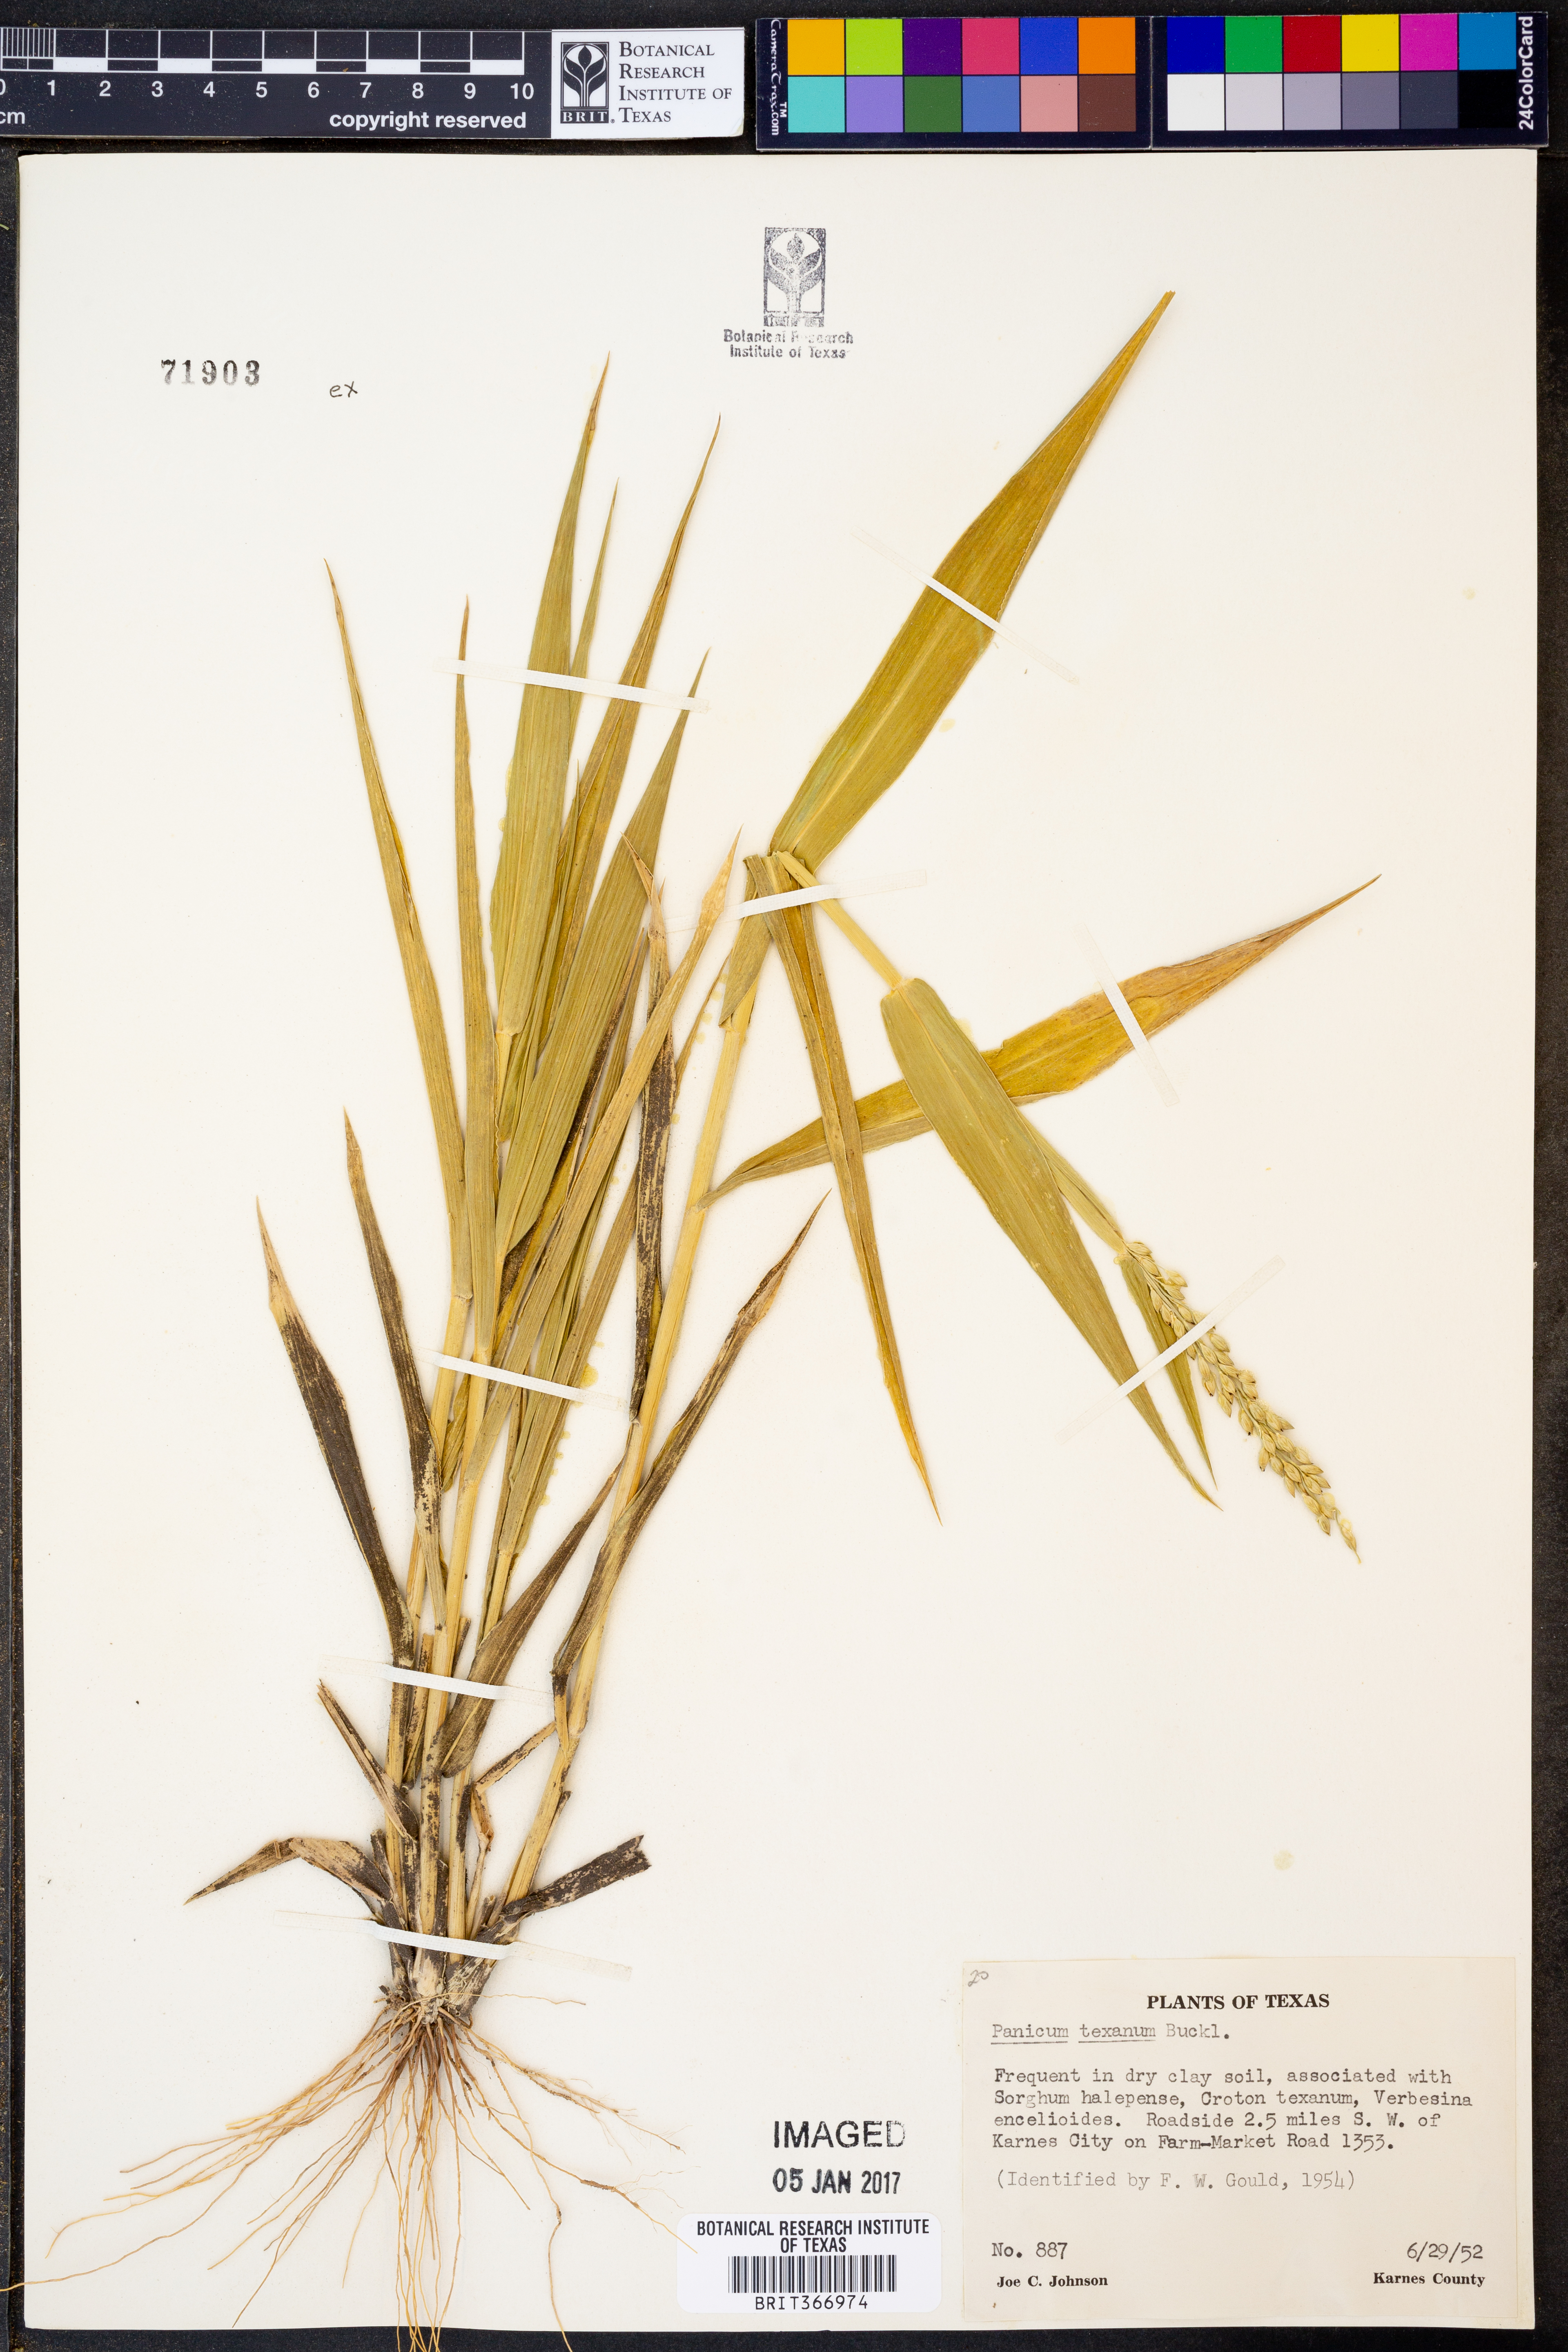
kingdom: Plantae
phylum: Tracheophyta
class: Liliopsida
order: Poales
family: Poaceae
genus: Urochloa
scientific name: Urochloa texana
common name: Texas millet
